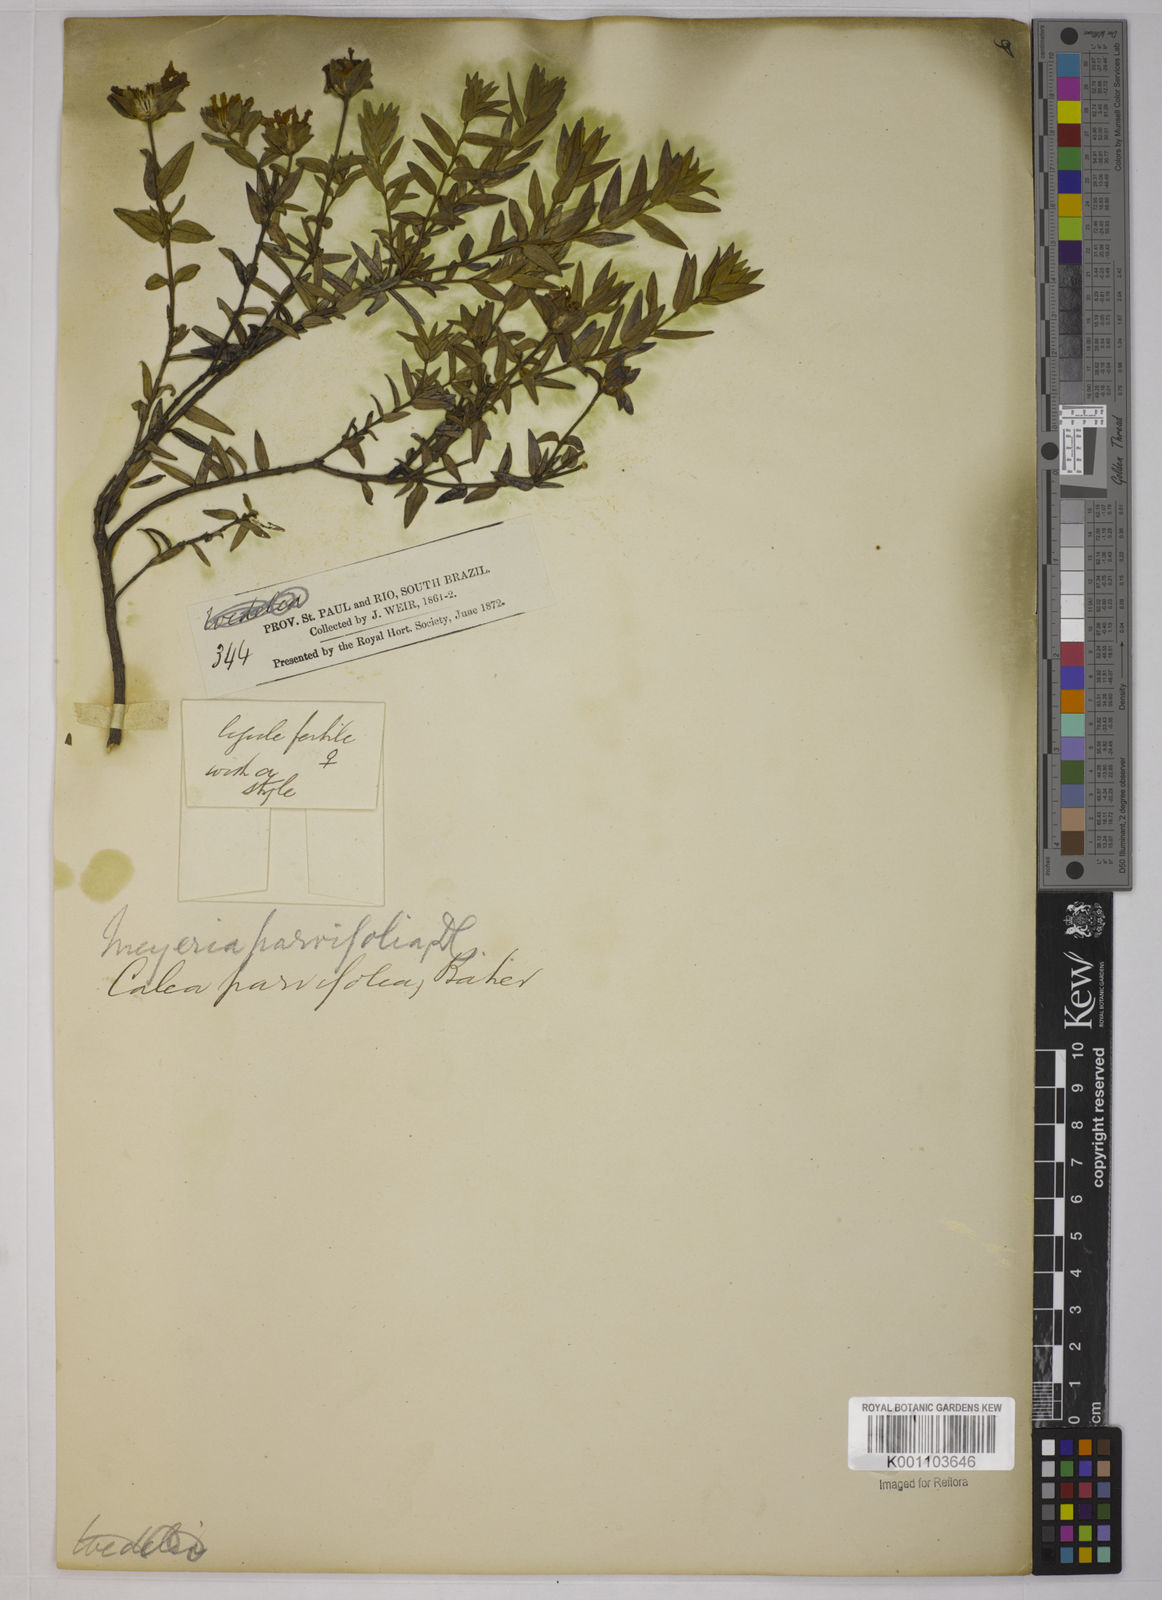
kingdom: Plantae
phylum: Tracheophyta
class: Magnoliopsida
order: Asterales
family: Asteraceae
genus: Calea
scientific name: Calea parvifolia
